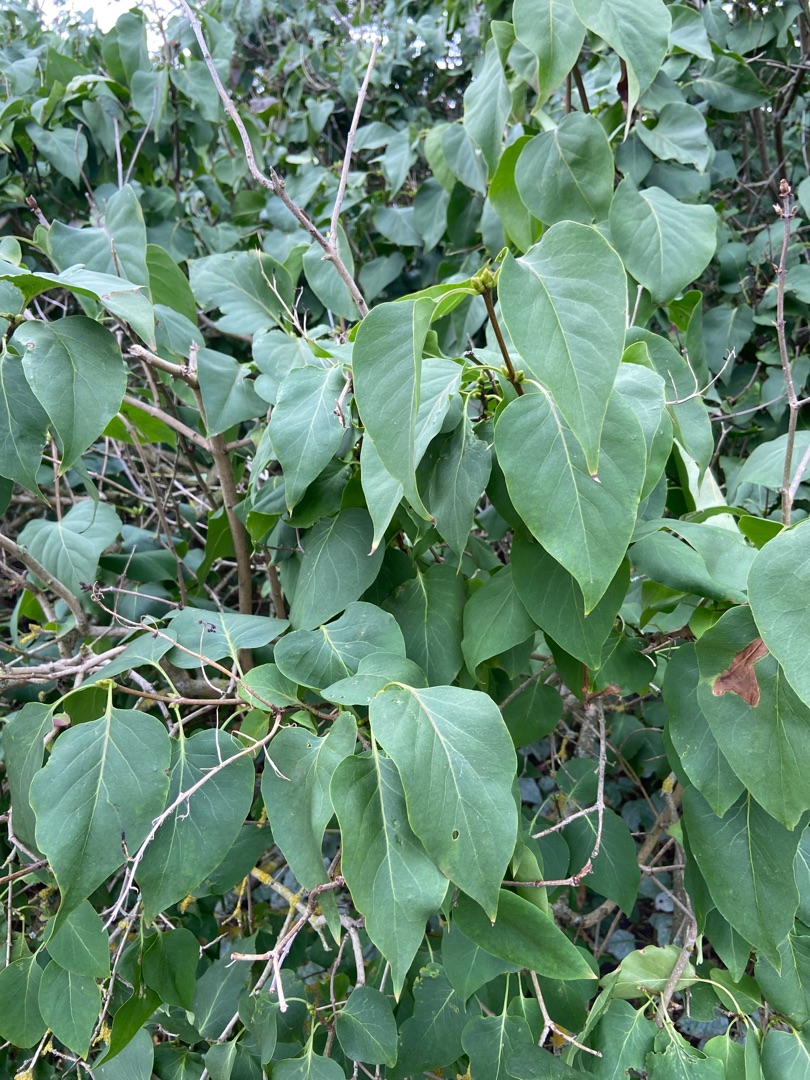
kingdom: Plantae
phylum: Tracheophyta
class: Magnoliopsida
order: Lamiales
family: Oleaceae
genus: Syringa
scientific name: Syringa vulgaris
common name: Syren
